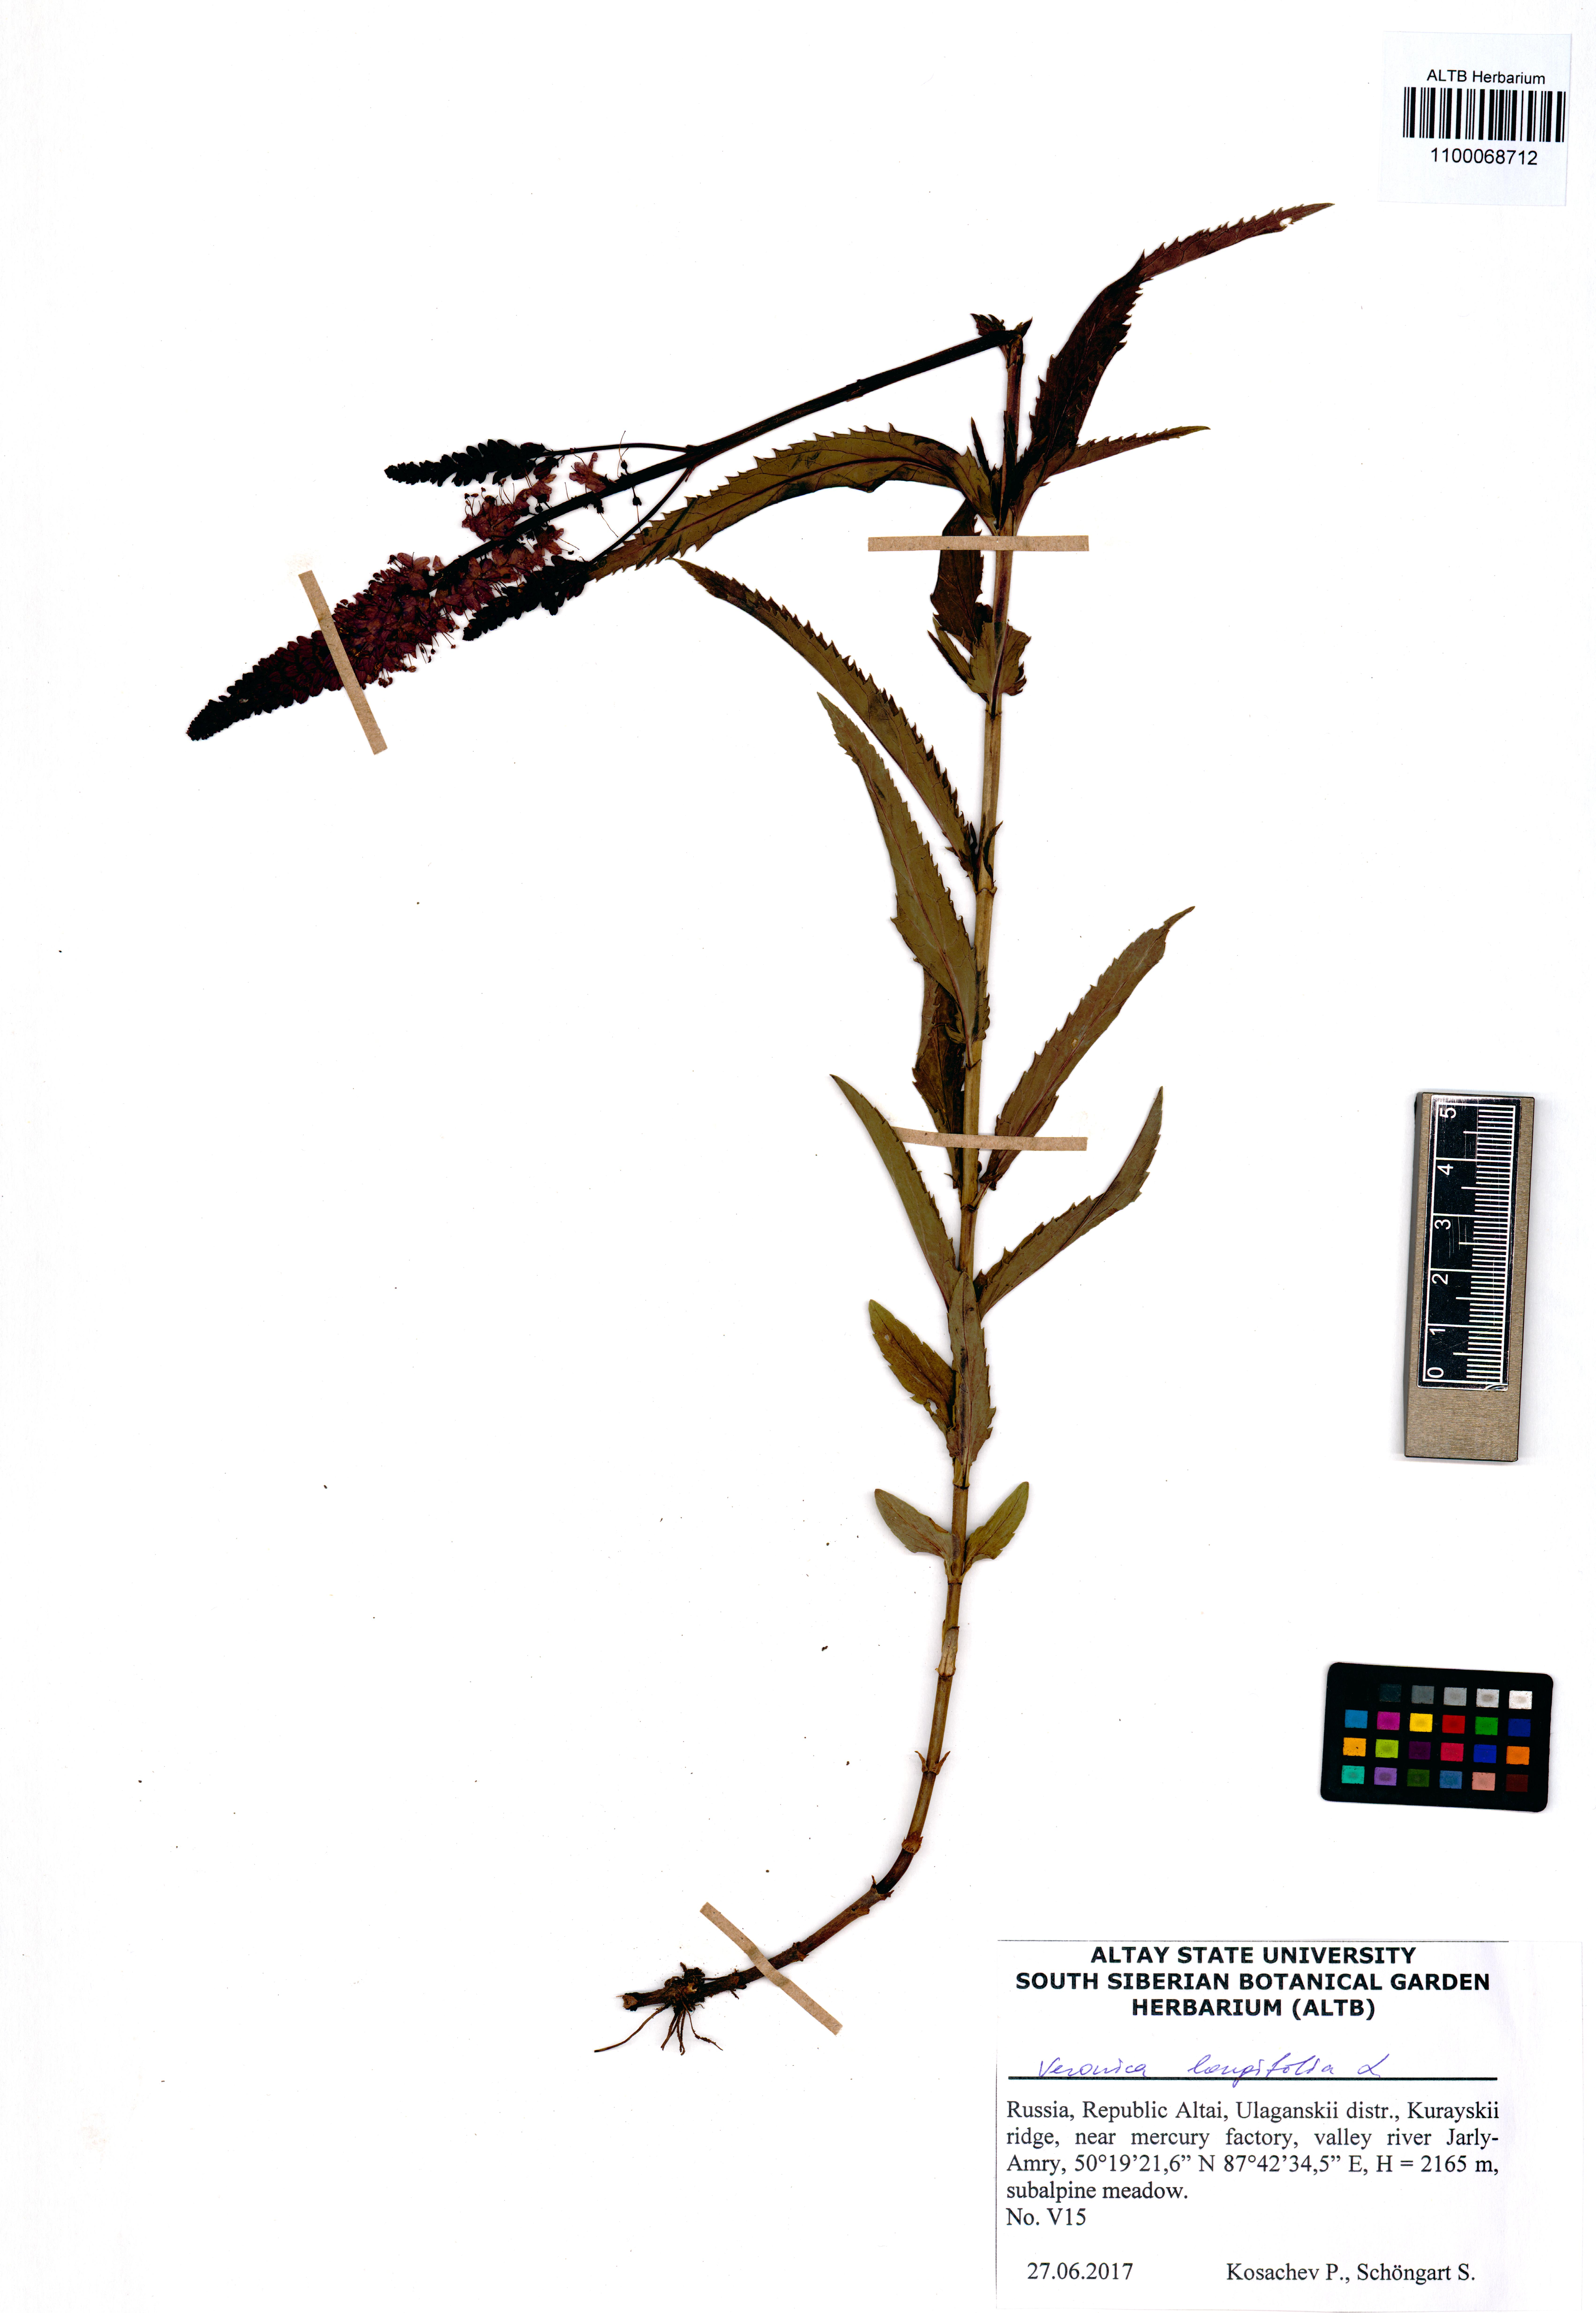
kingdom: Plantae
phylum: Tracheophyta
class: Magnoliopsida
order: Lamiales
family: Plantaginaceae
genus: Veronica
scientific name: Veronica longifolia
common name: Garden speedwell
